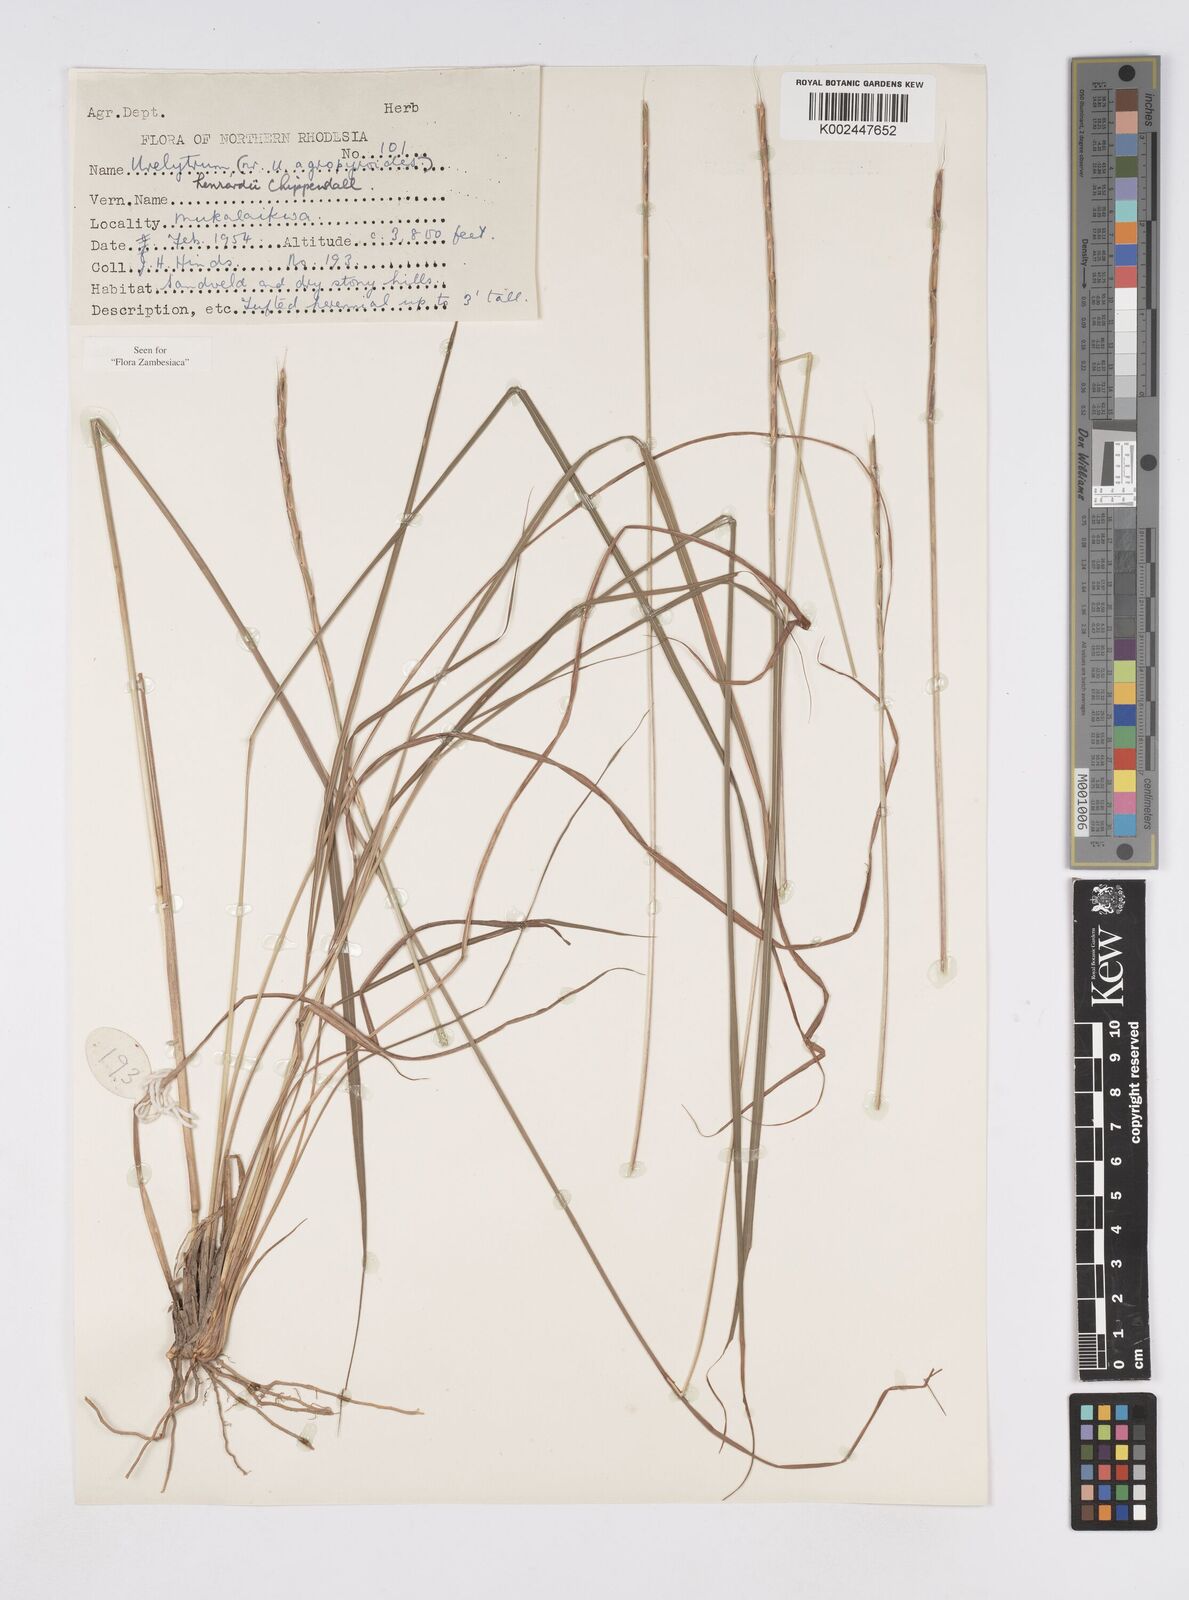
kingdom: Plantae
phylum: Tracheophyta
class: Liliopsida
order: Poales
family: Poaceae
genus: Urelytrum
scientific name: Urelytrum henrardii
